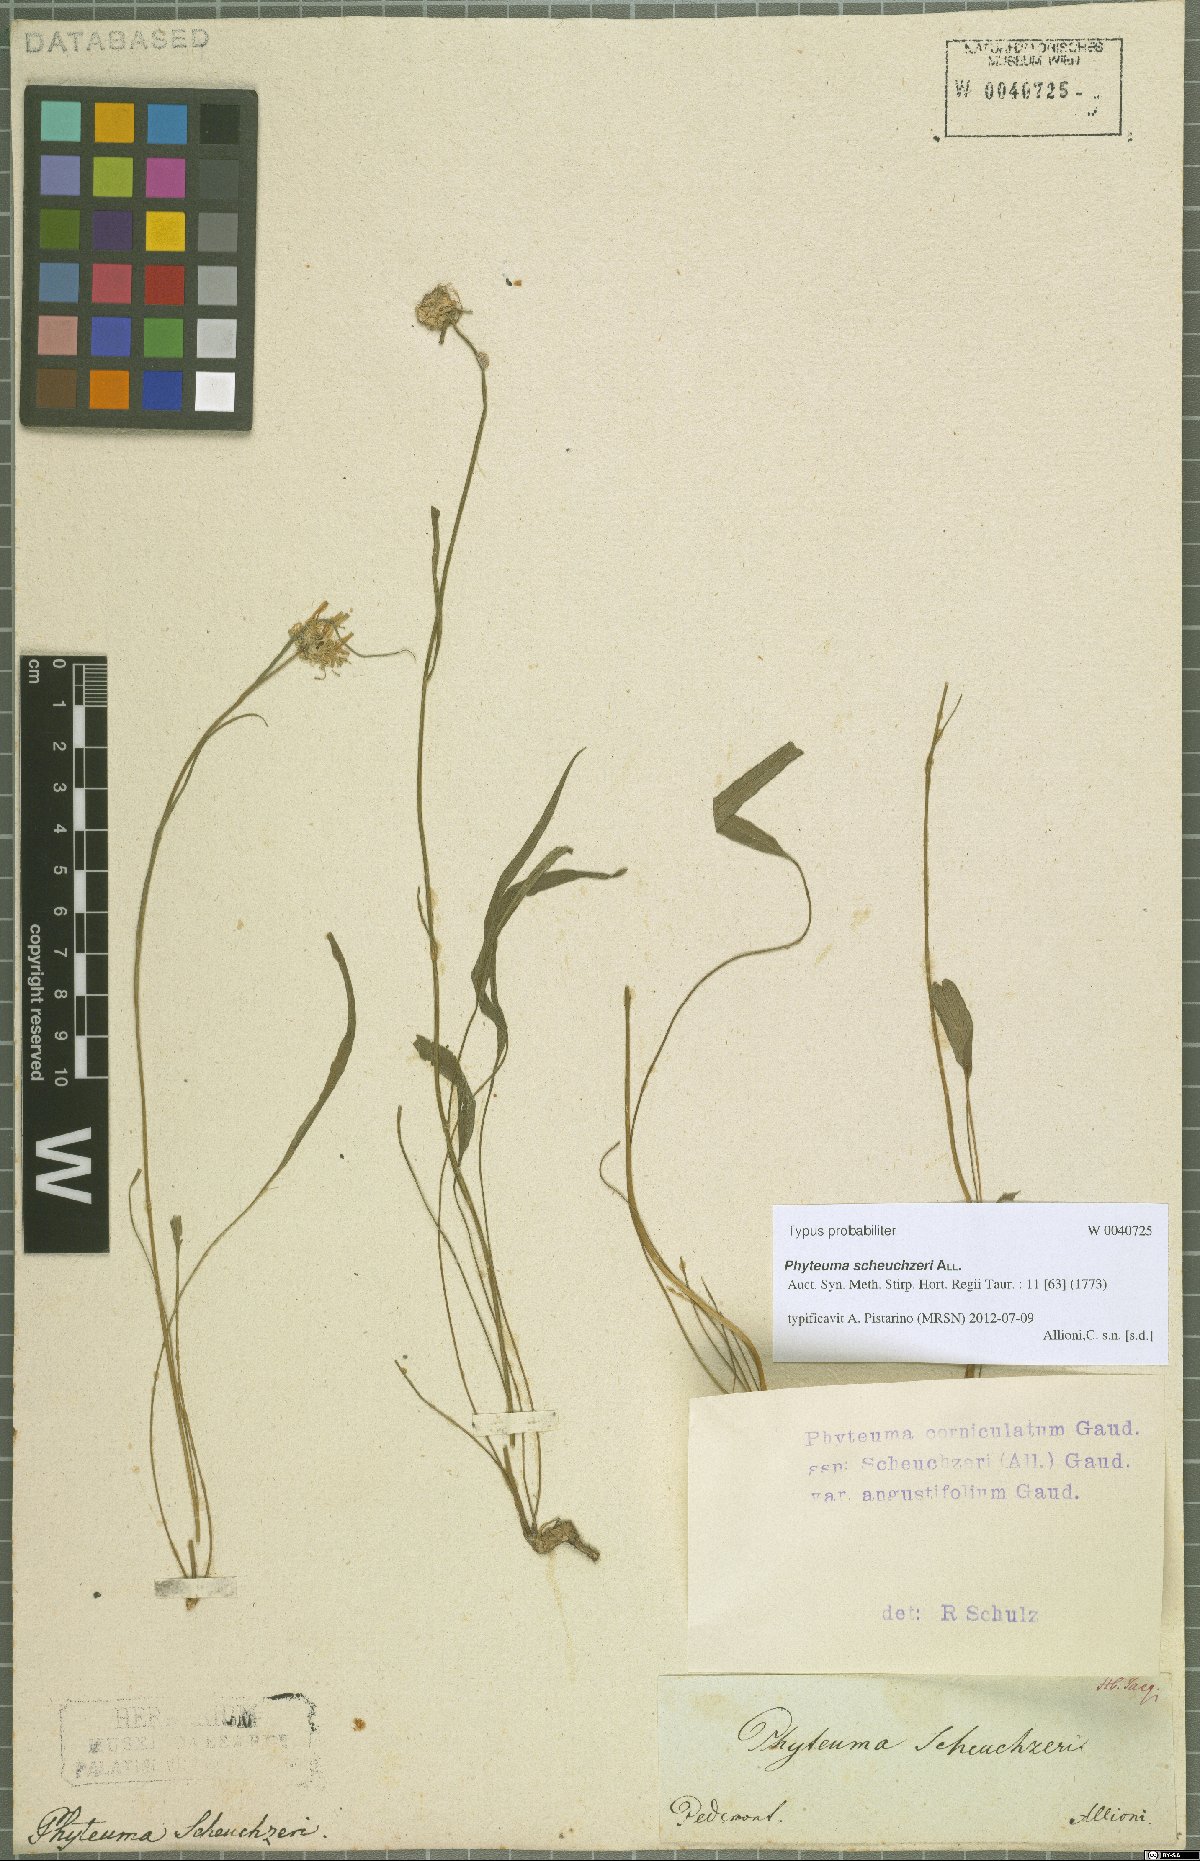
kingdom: Plantae
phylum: Tracheophyta
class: Magnoliopsida
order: Asterales
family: Campanulaceae
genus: Phyteuma
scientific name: Phyteuma scheuchzeri
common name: Oxford rampion
